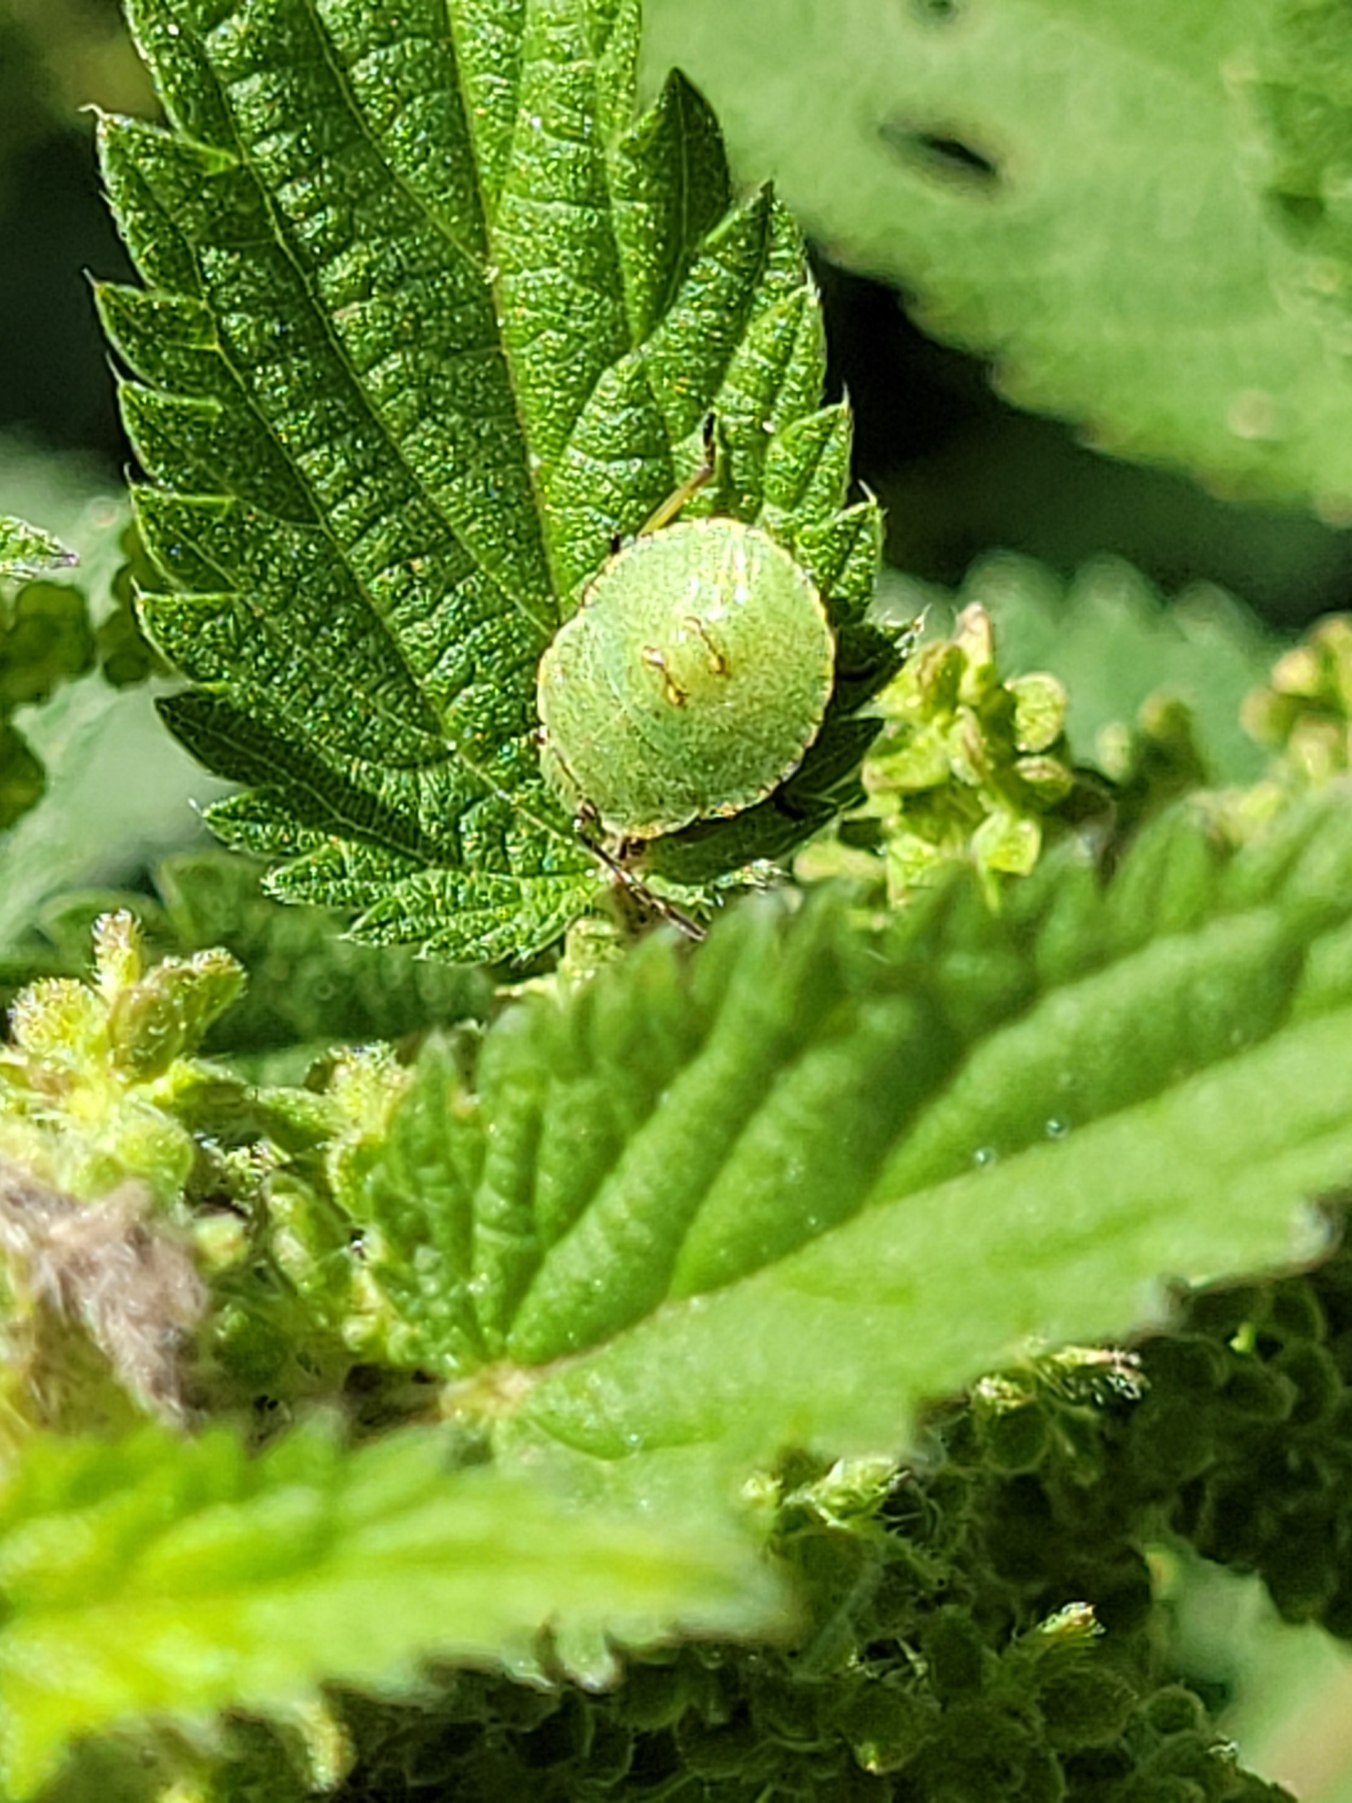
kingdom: Animalia
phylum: Arthropoda
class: Insecta
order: Hemiptera
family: Pentatomidae
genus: Palomena
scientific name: Palomena prasina
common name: Grøn bredtæge
